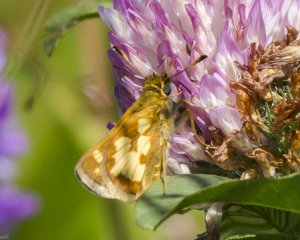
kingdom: Animalia
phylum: Arthropoda
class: Insecta
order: Lepidoptera
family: Hesperiidae
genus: Polites
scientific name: Polites coras
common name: Peck's Skipper
